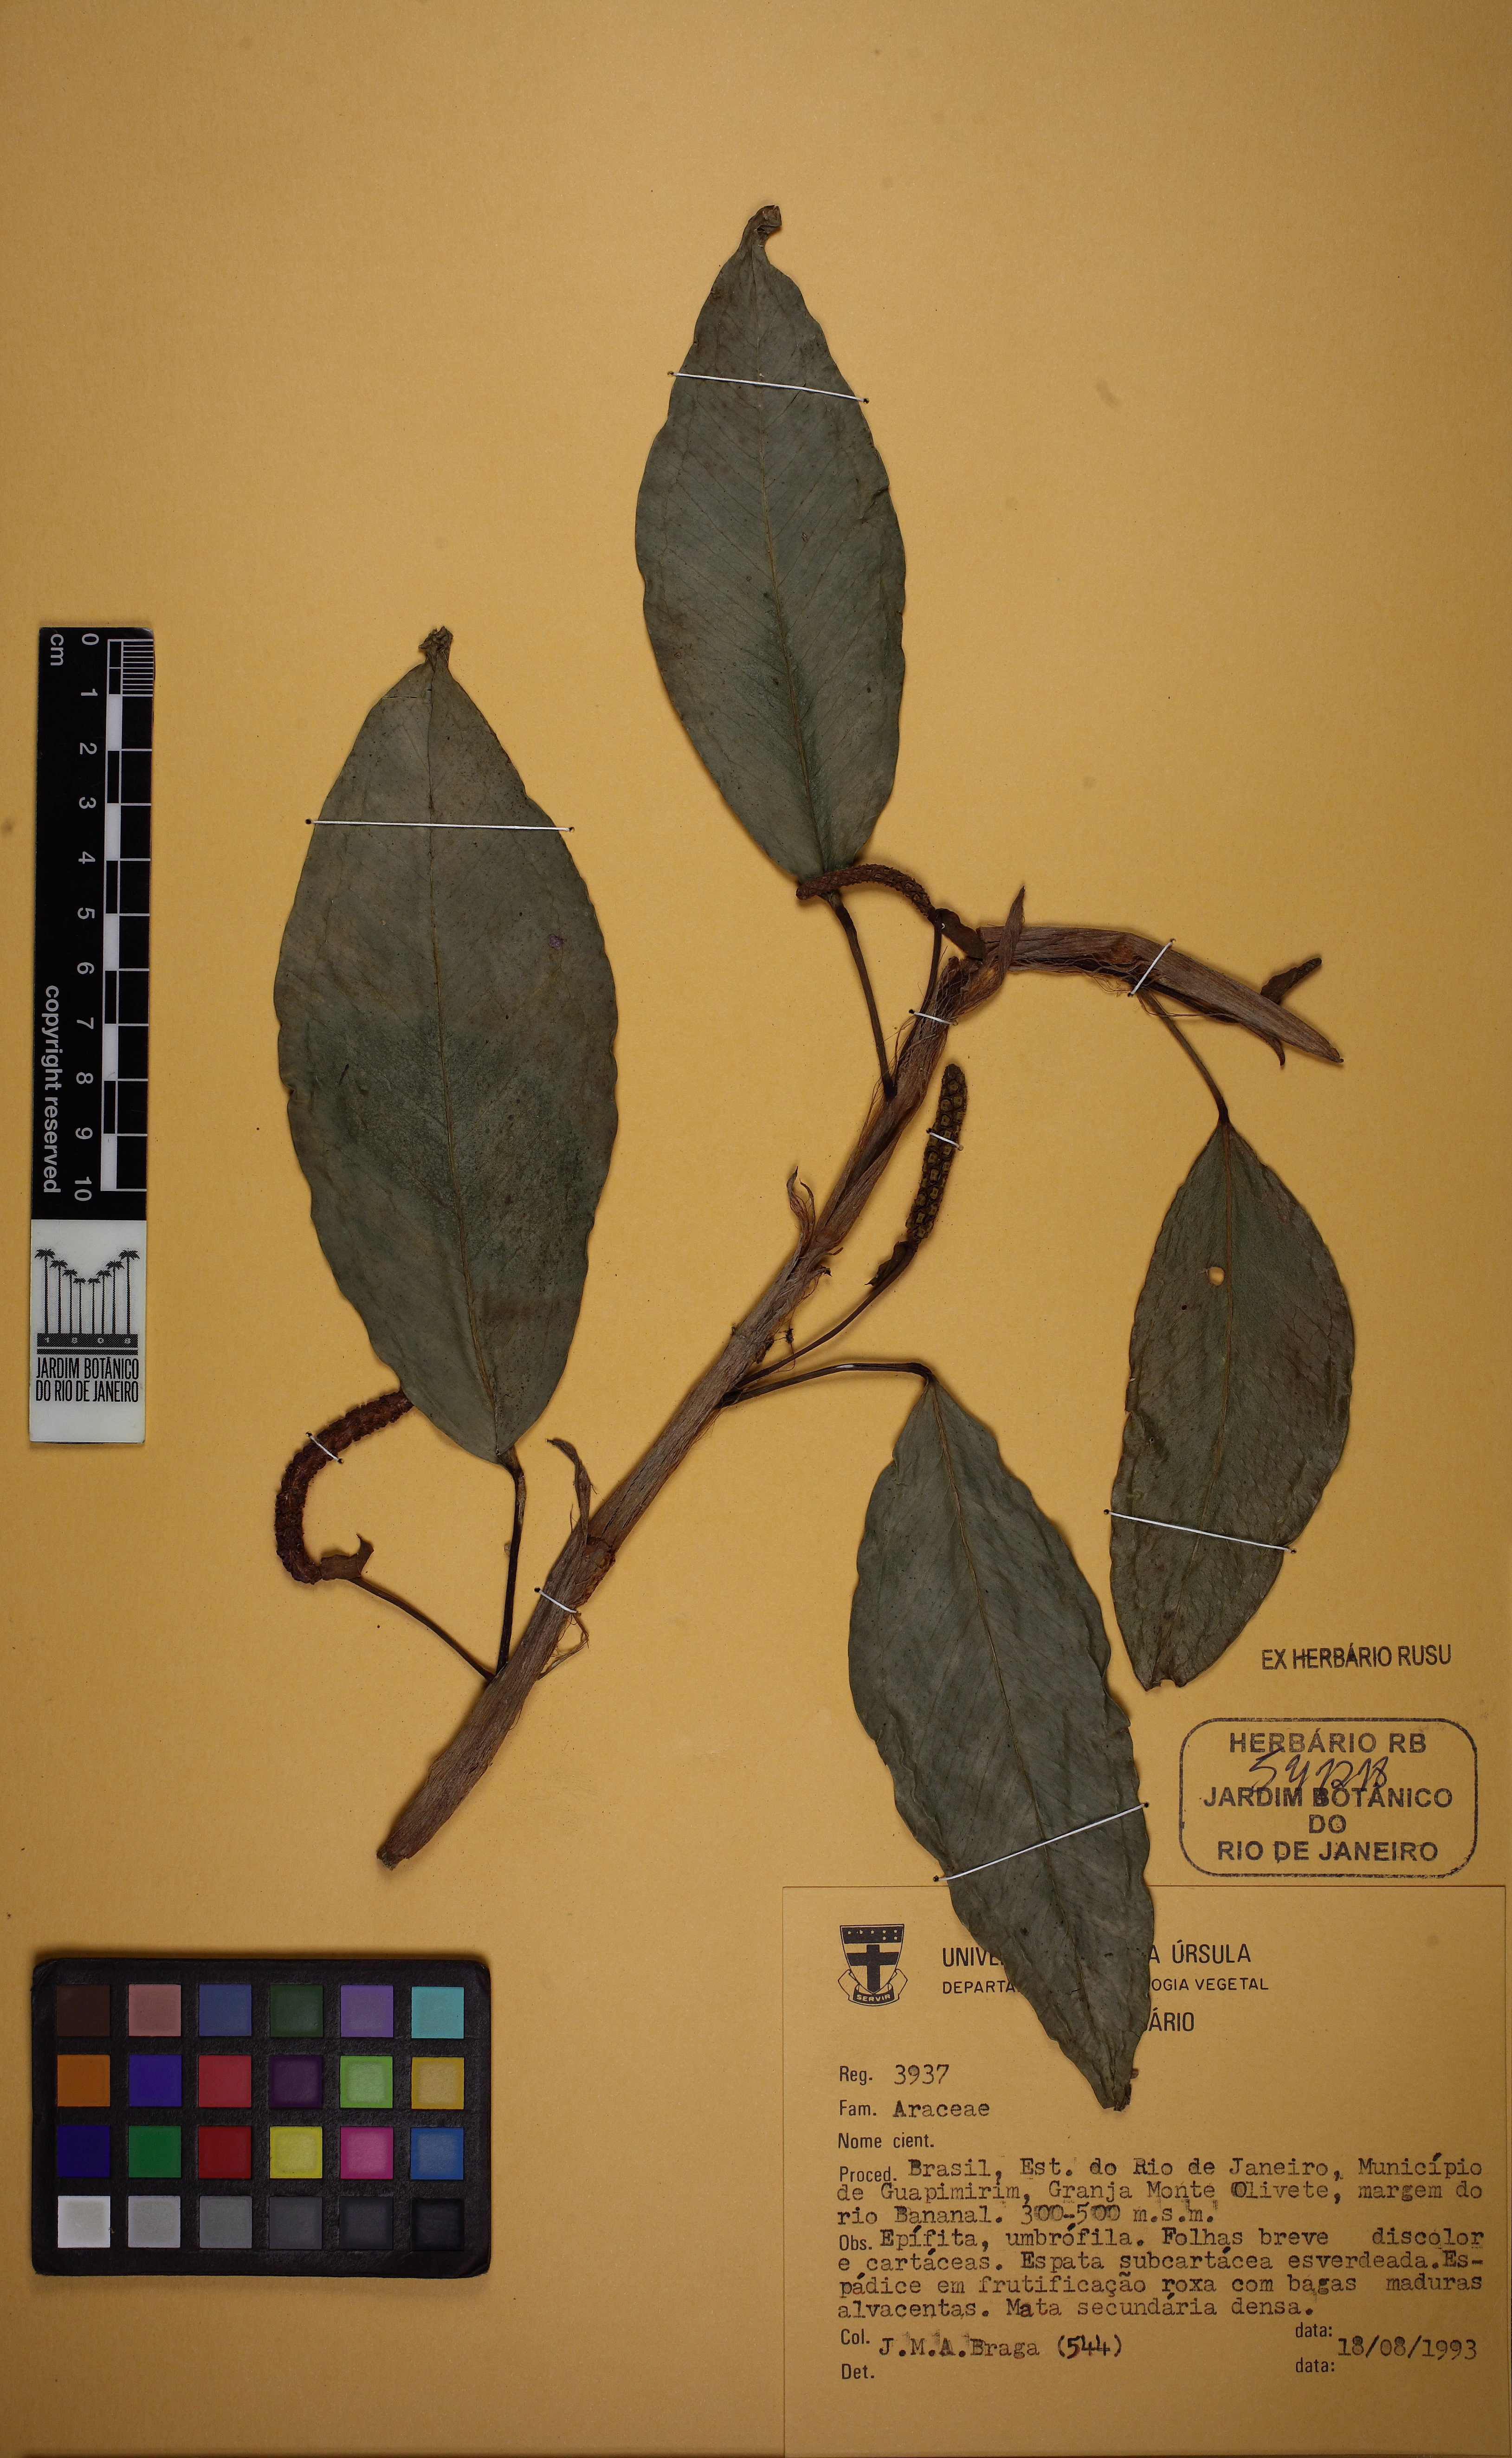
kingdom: Plantae
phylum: Tracheophyta
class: Liliopsida
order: Alismatales
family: Araceae
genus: Anthurium
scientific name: Anthurium scandens
